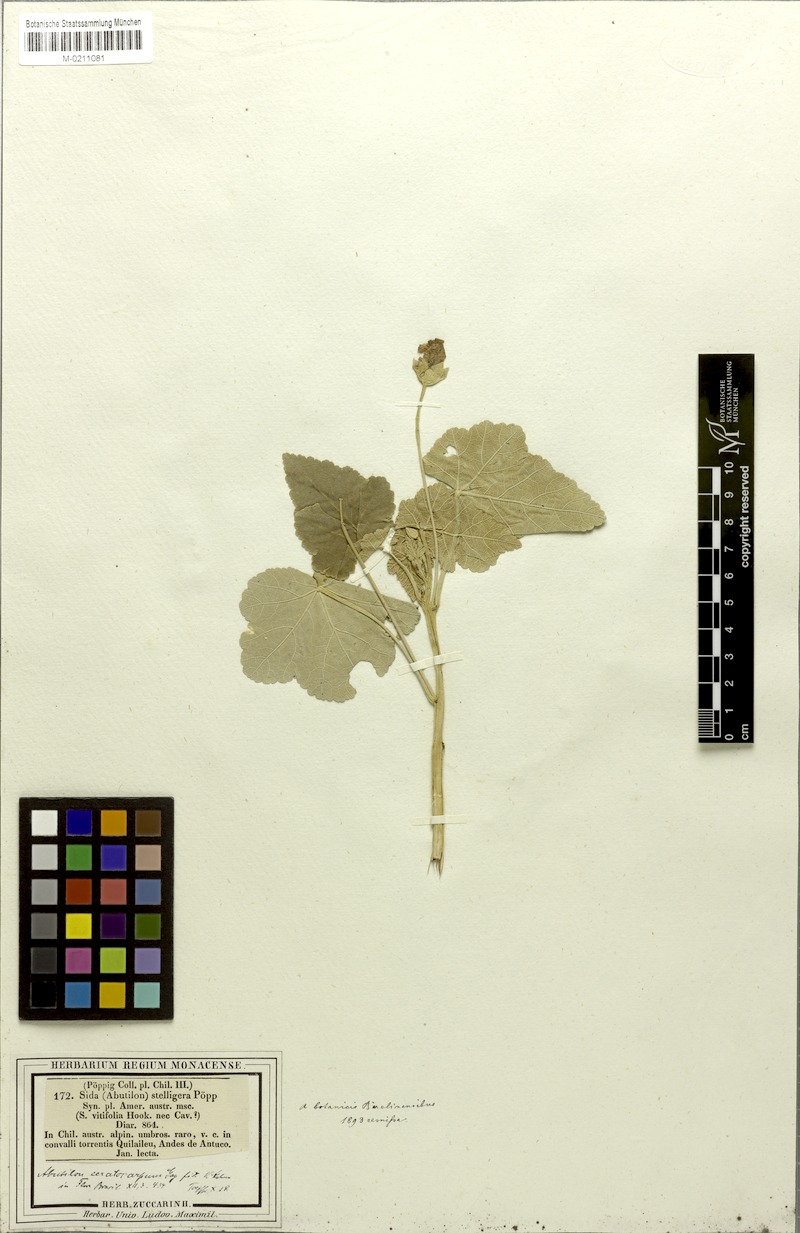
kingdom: Plantae
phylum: Tracheophyta
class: Magnoliopsida
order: Malvales
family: Malvaceae
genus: Corynabutilon
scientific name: Corynabutilon ceratocarpum
